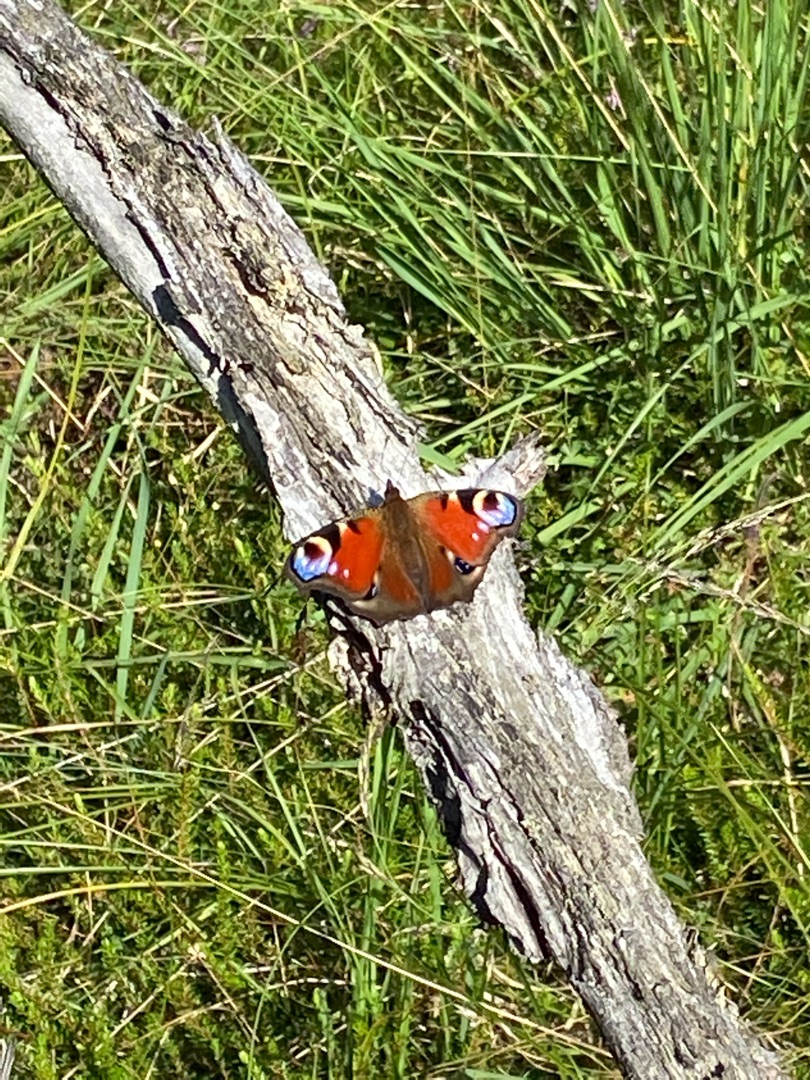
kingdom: Animalia
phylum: Arthropoda
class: Insecta
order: Lepidoptera
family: Nymphalidae
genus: Aglais
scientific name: Aglais io
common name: Dagpåfugleøje
